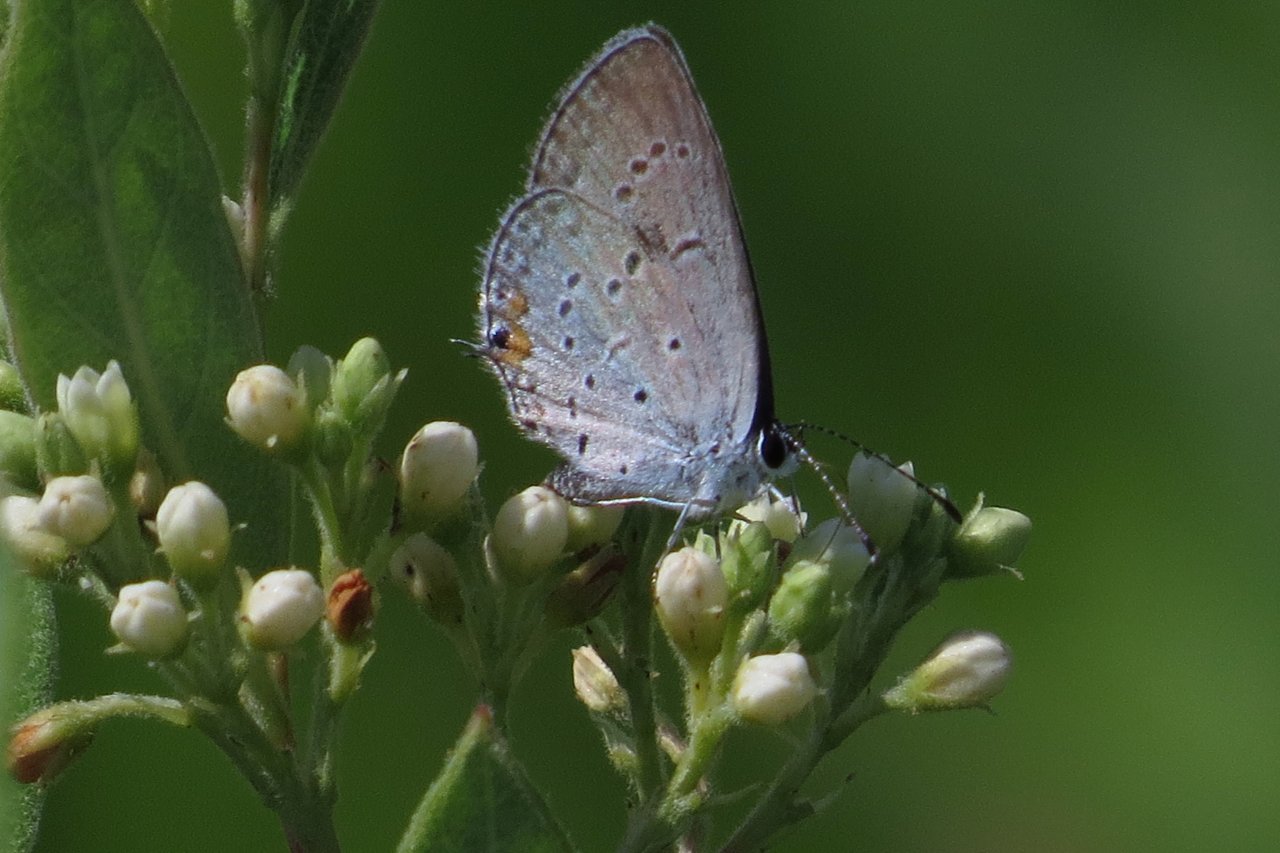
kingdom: Animalia
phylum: Arthropoda
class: Insecta
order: Lepidoptera
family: Lycaenidae
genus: Elkalyce
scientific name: Elkalyce comyntas
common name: Eastern Tailed-Blue
